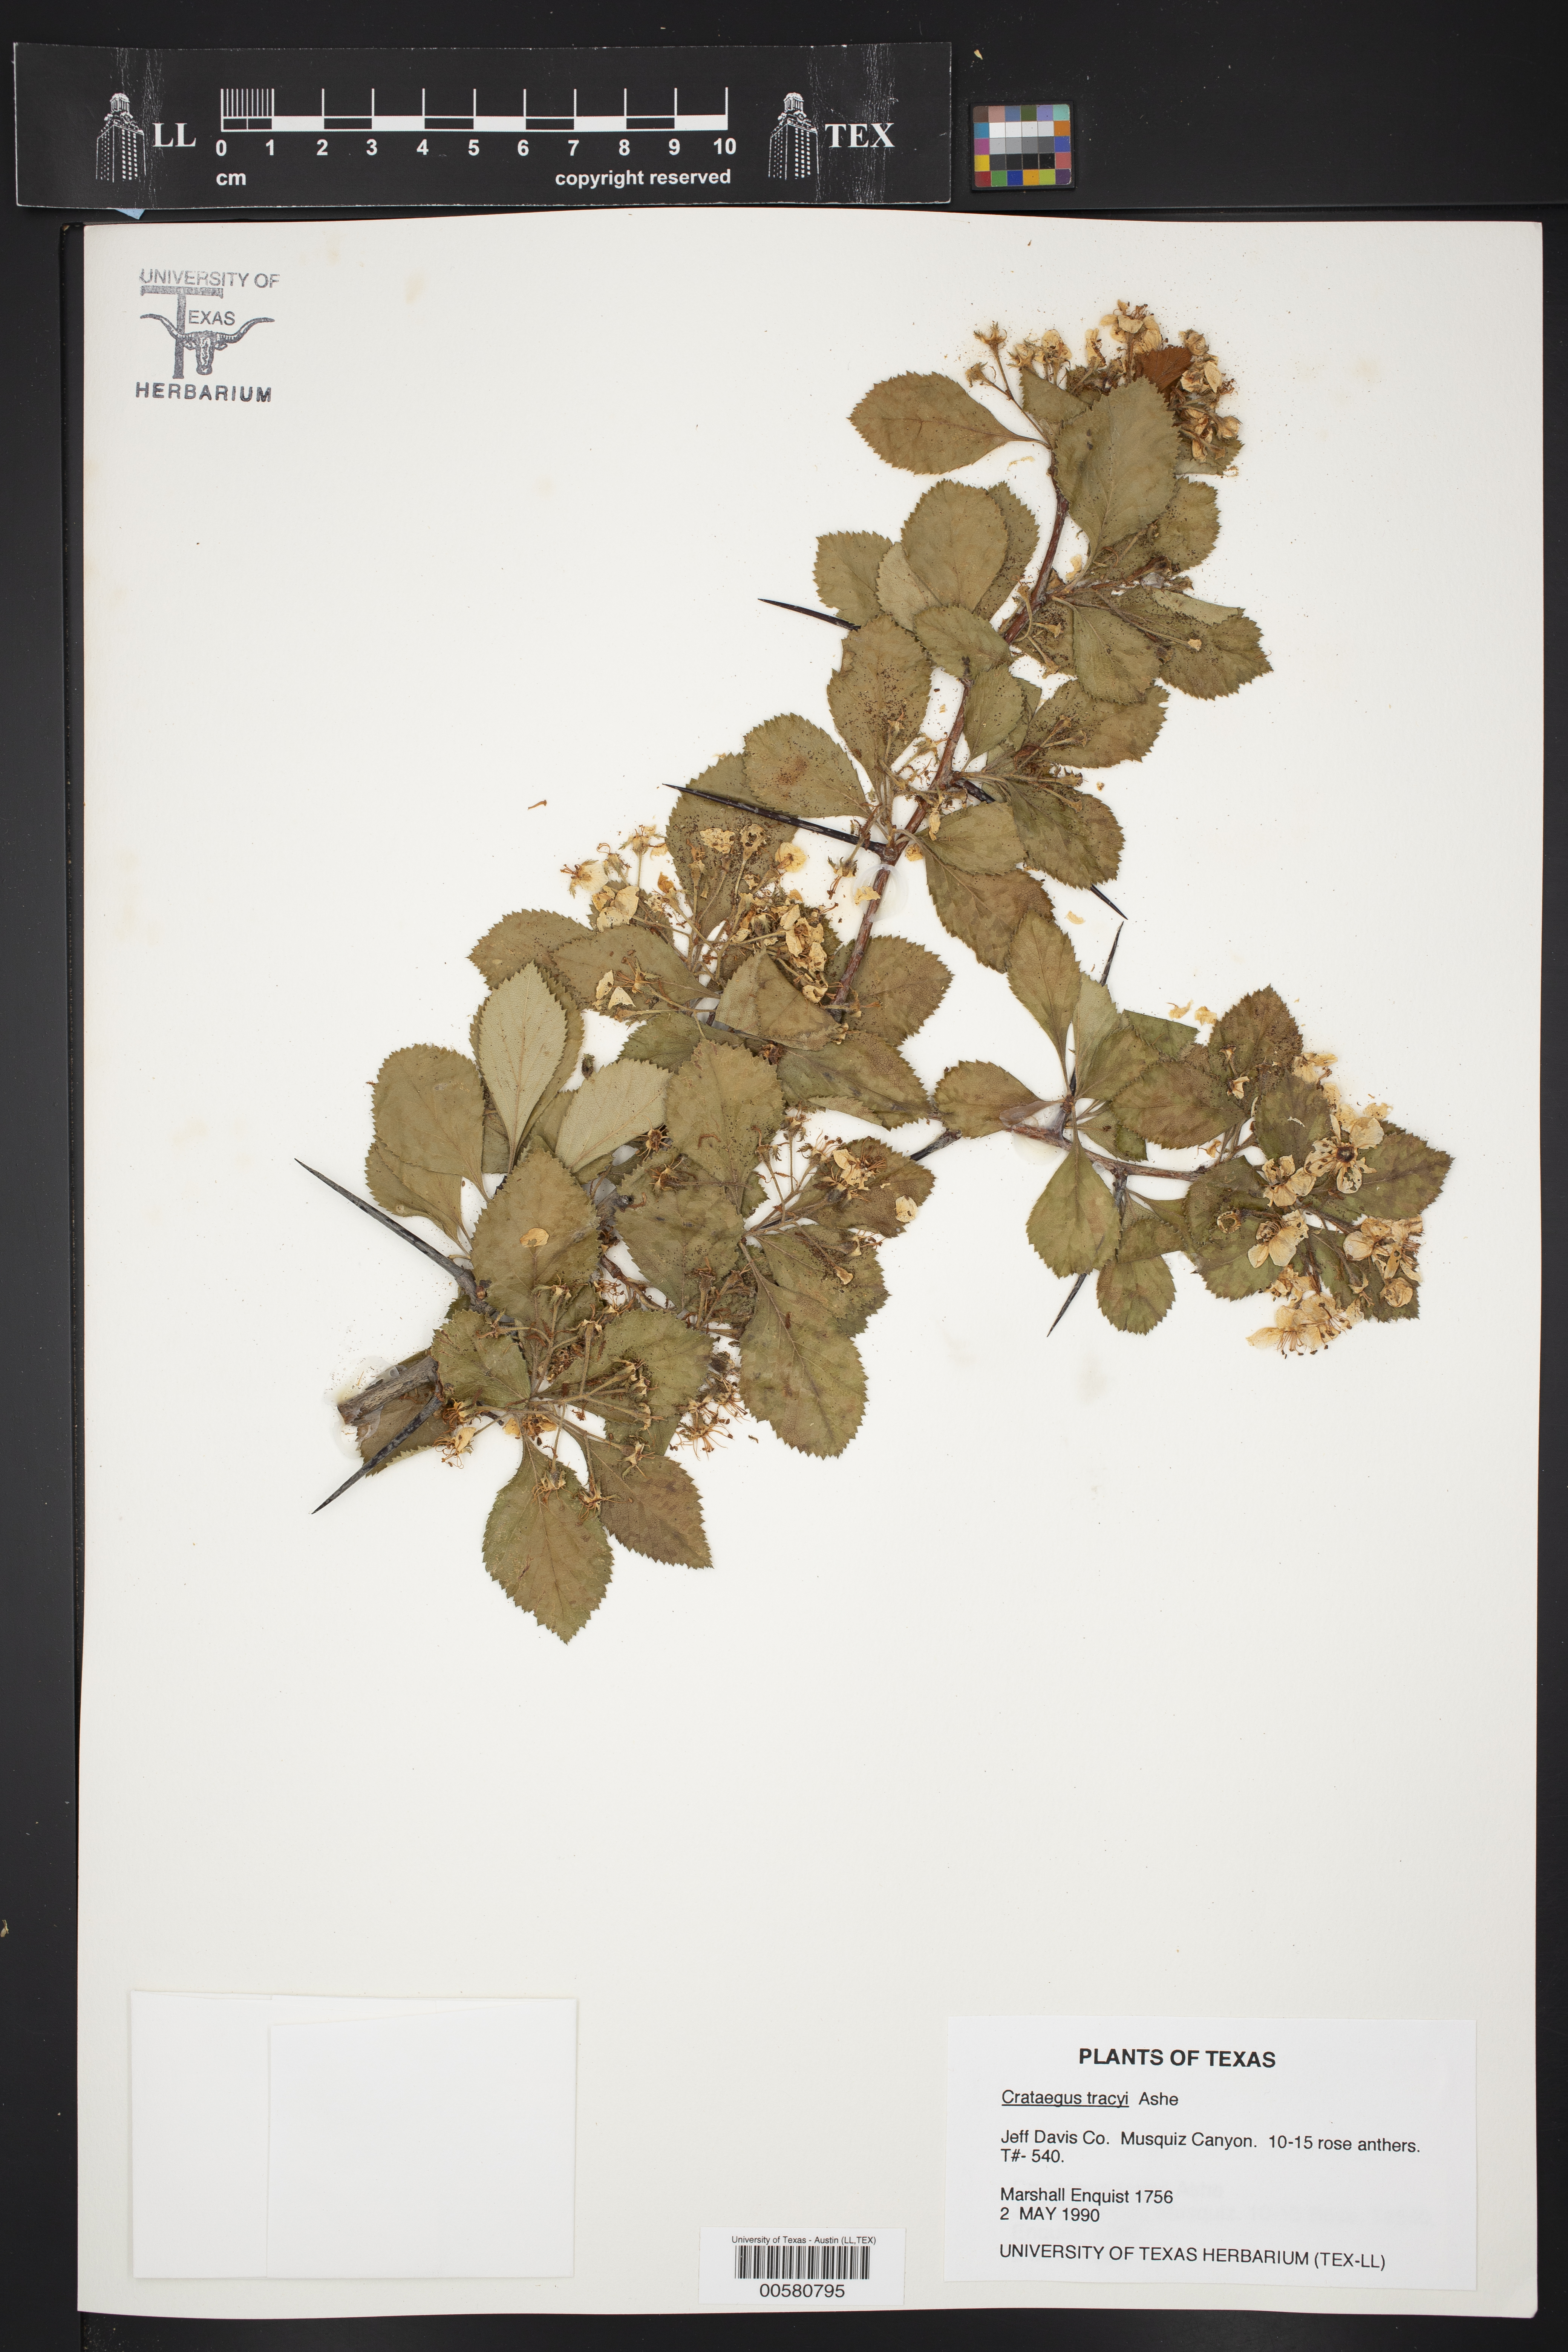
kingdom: Plantae
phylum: Tracheophyta
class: Magnoliopsida
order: Rosales
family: Rosaceae
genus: Crataegus
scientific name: Crataegus tracyi
